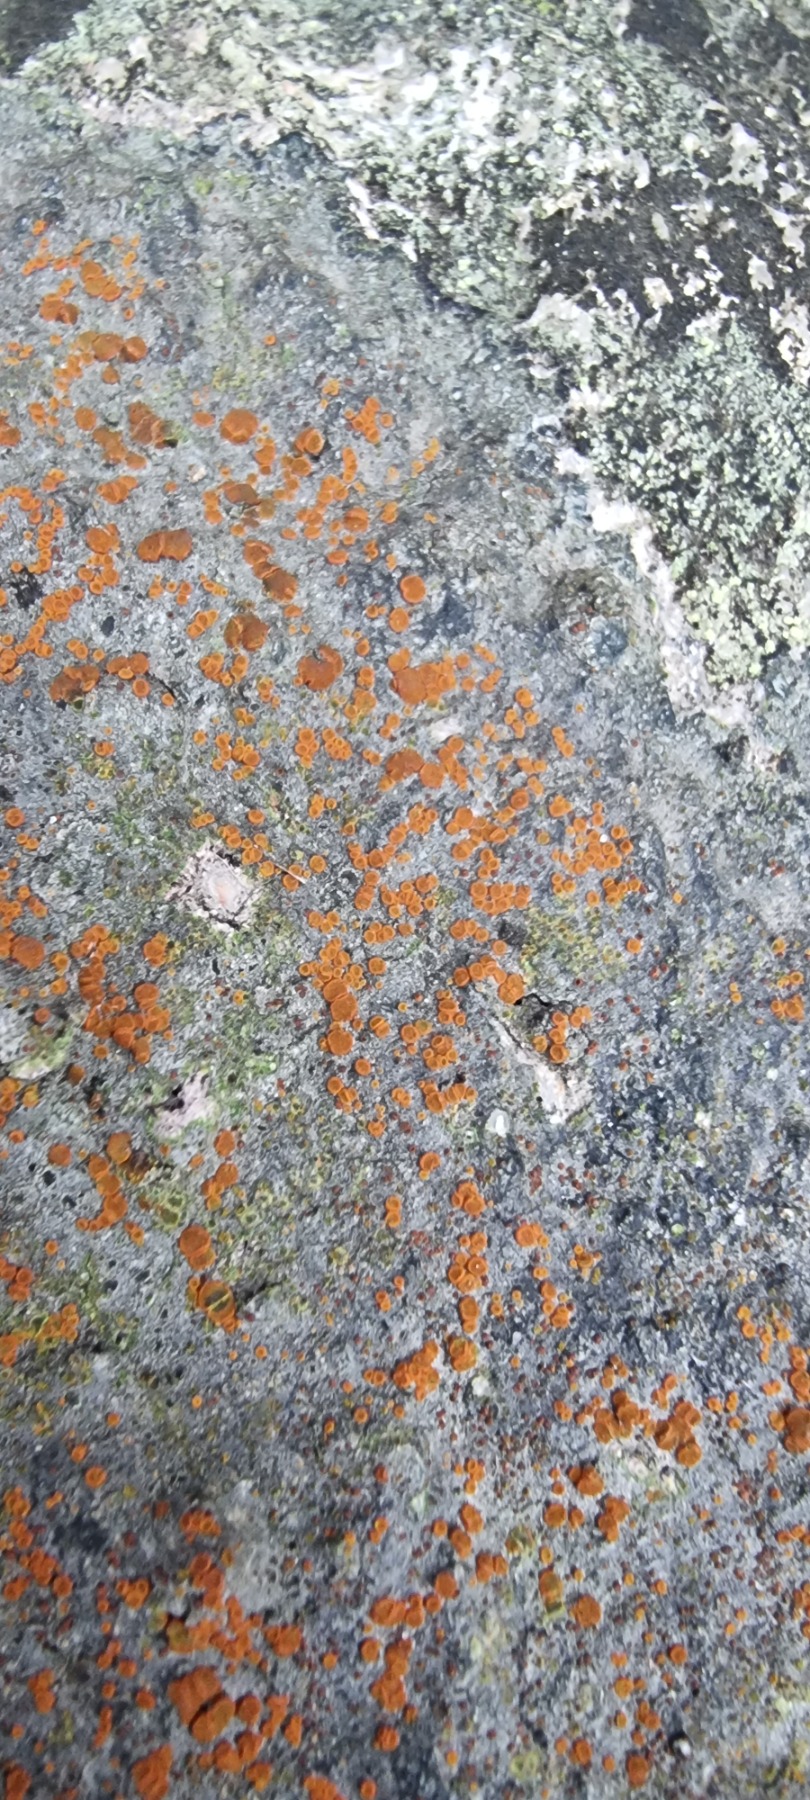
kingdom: Fungi
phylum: Ascomycota
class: Lecanoromycetes
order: Teloschistales
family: Teloschistaceae
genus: Blastenia
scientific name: Blastenia crenularia
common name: Pyntelig orangelav
